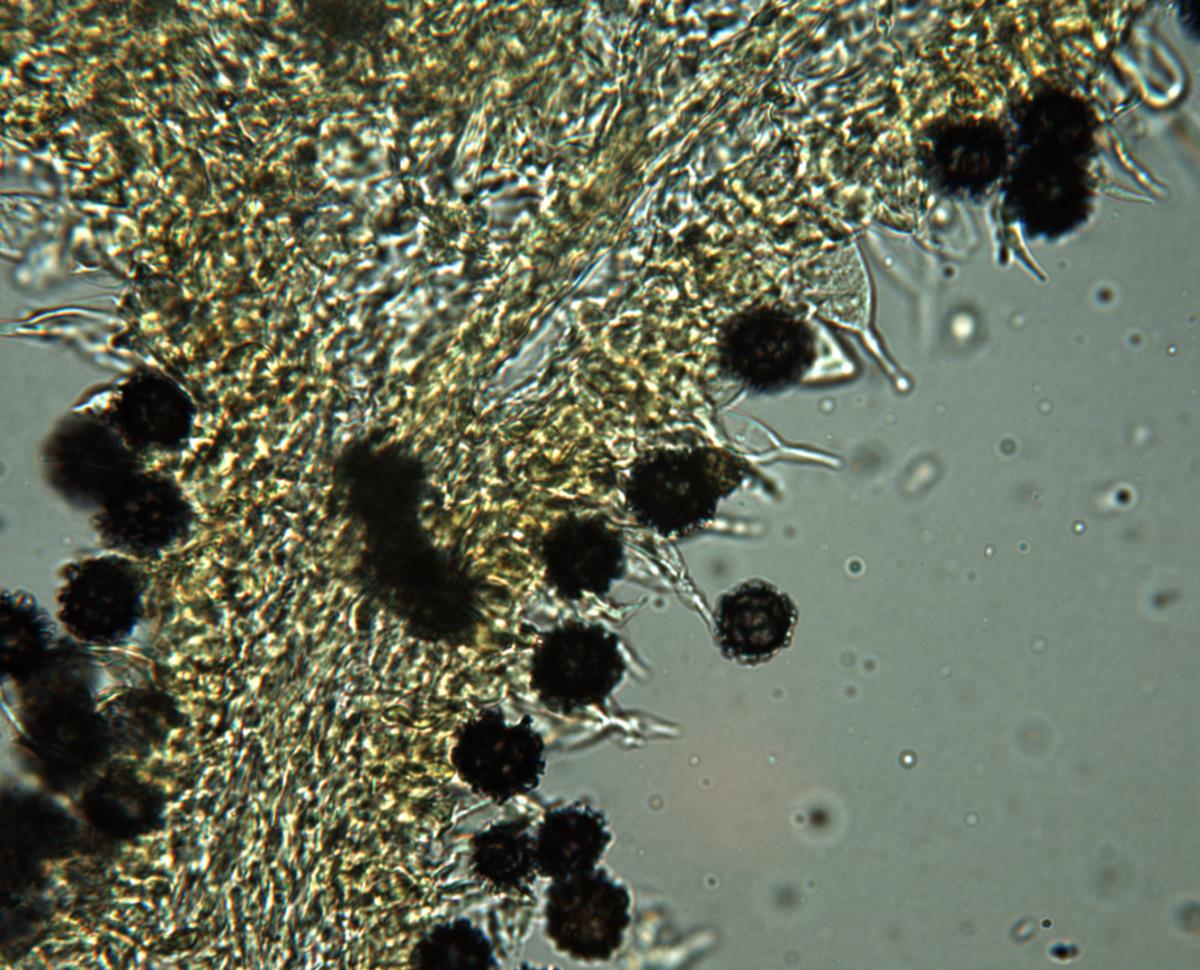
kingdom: Fungi
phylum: Basidiomycota
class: Agaricomycetes
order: Russulales
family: Russulaceae
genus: Russula
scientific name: Russula korystospora
